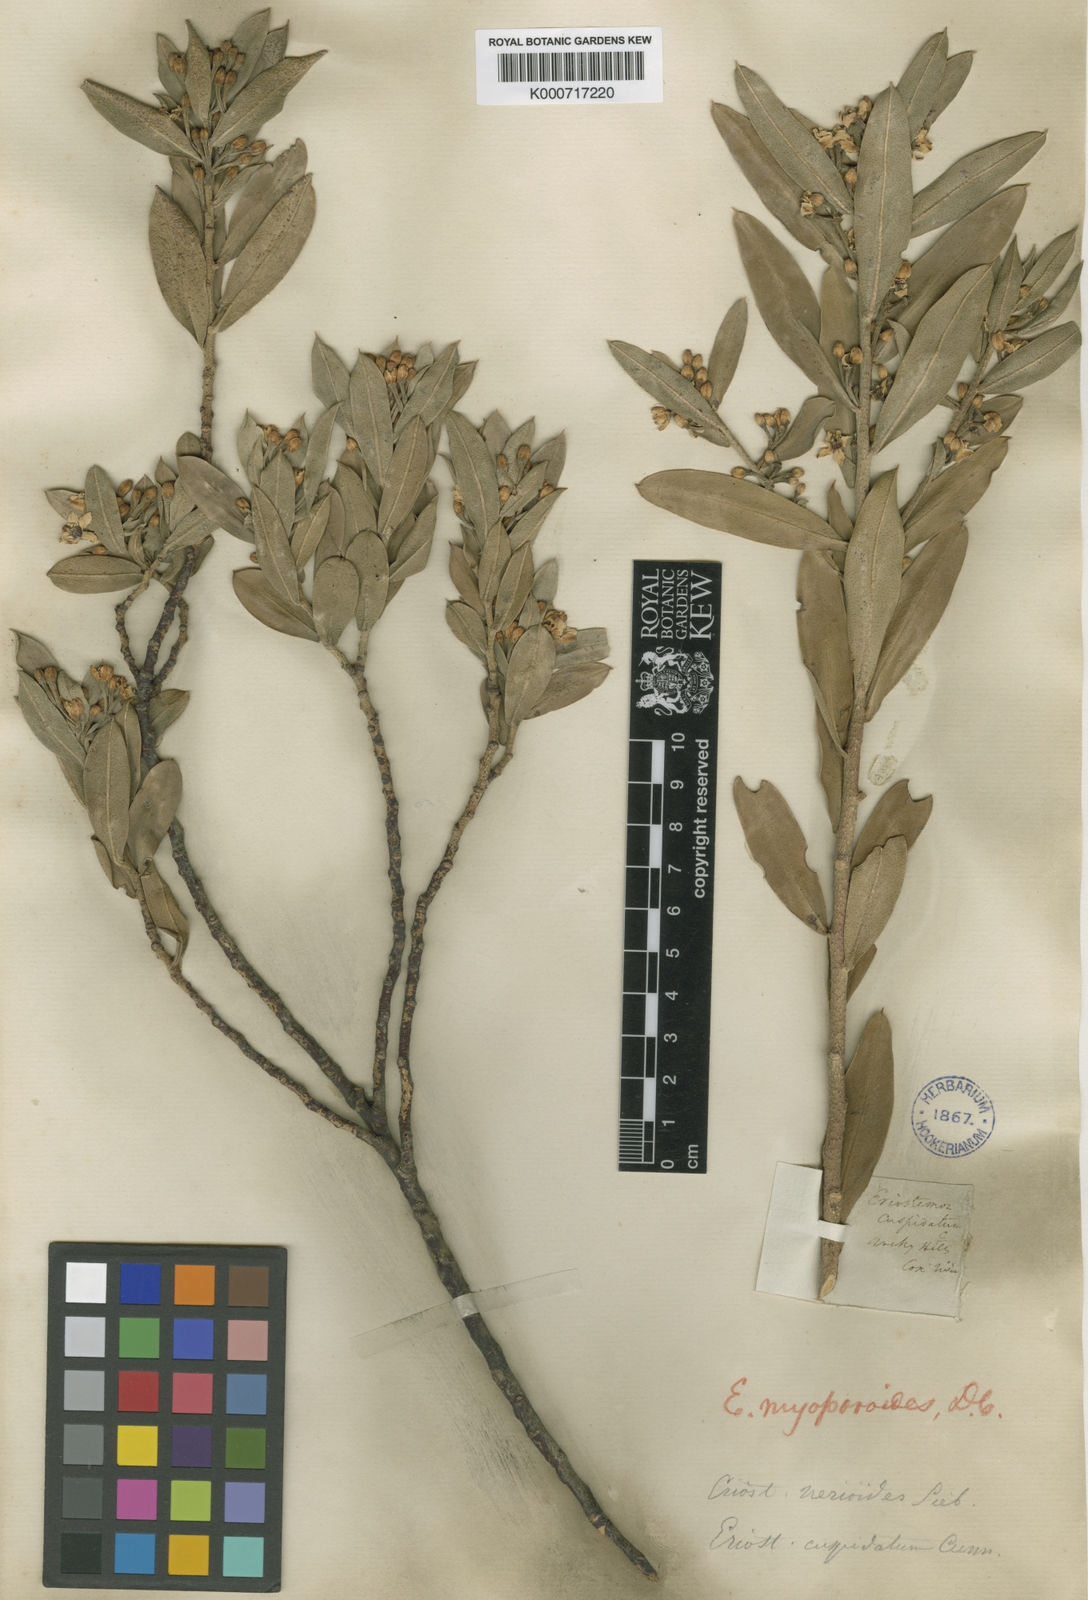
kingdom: Plantae
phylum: Tracheophyta
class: Magnoliopsida
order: Sapindales
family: Rutaceae
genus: Philotheca
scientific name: Philotheca myoporoides
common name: Longleaf waxflower
